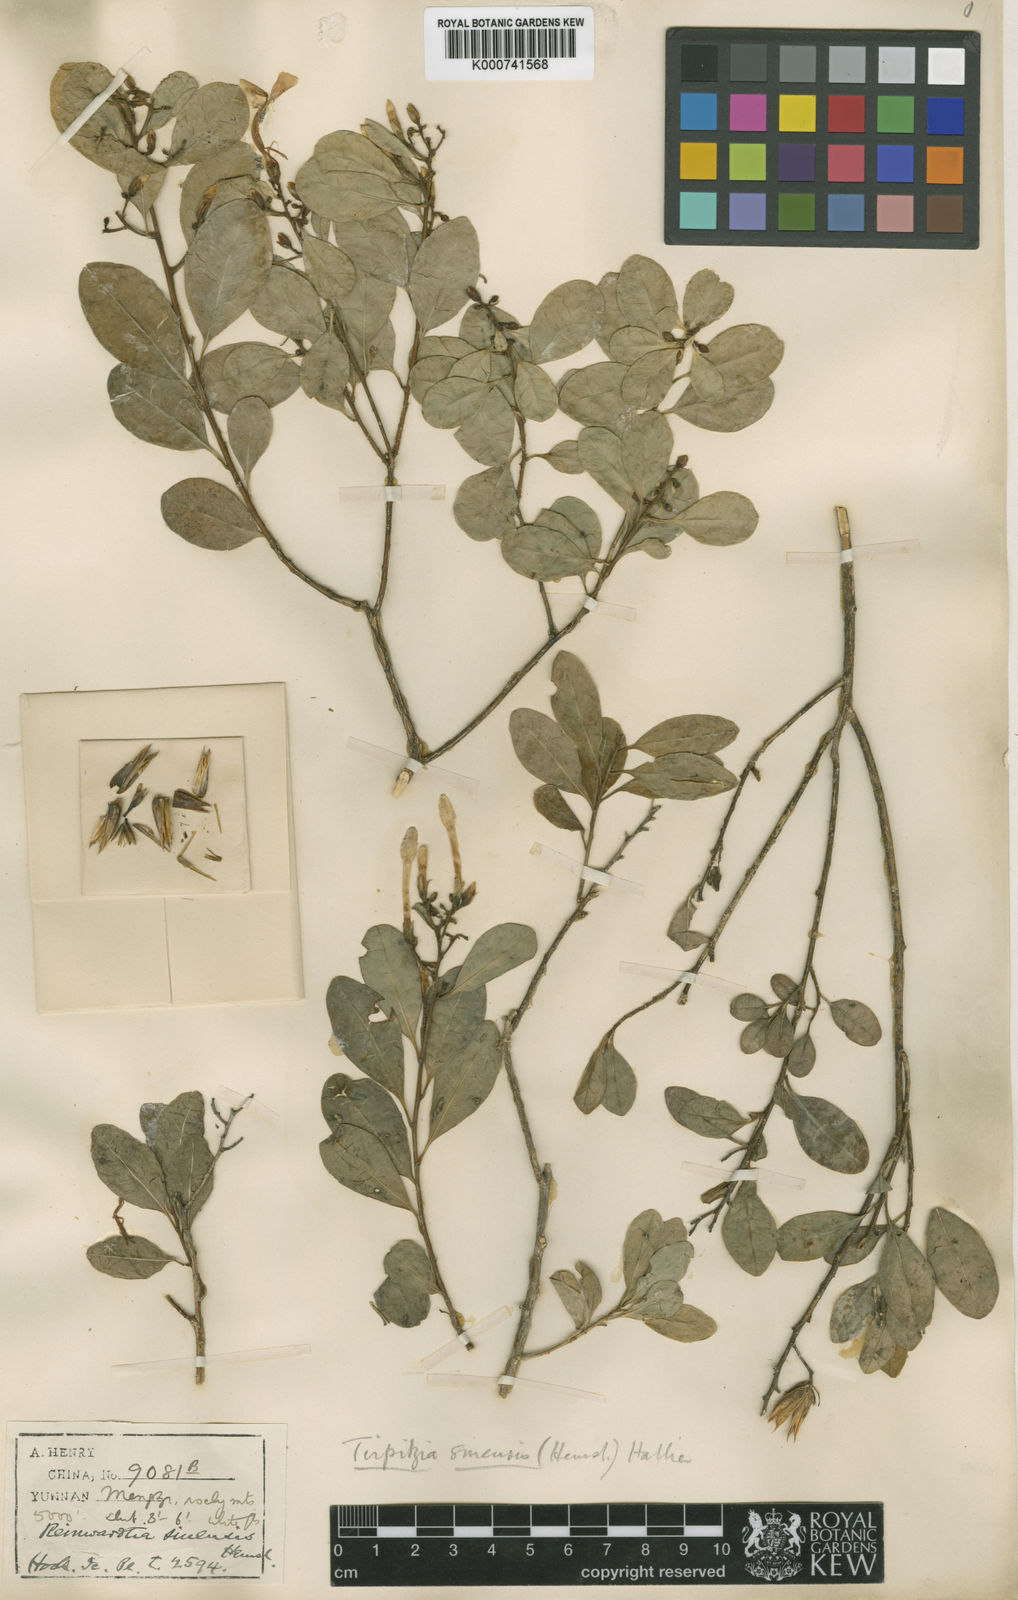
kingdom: Plantae
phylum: Tracheophyta
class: Magnoliopsida
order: Malpighiales
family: Linaceae
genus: Tirpitzia
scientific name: Tirpitzia sinensis
